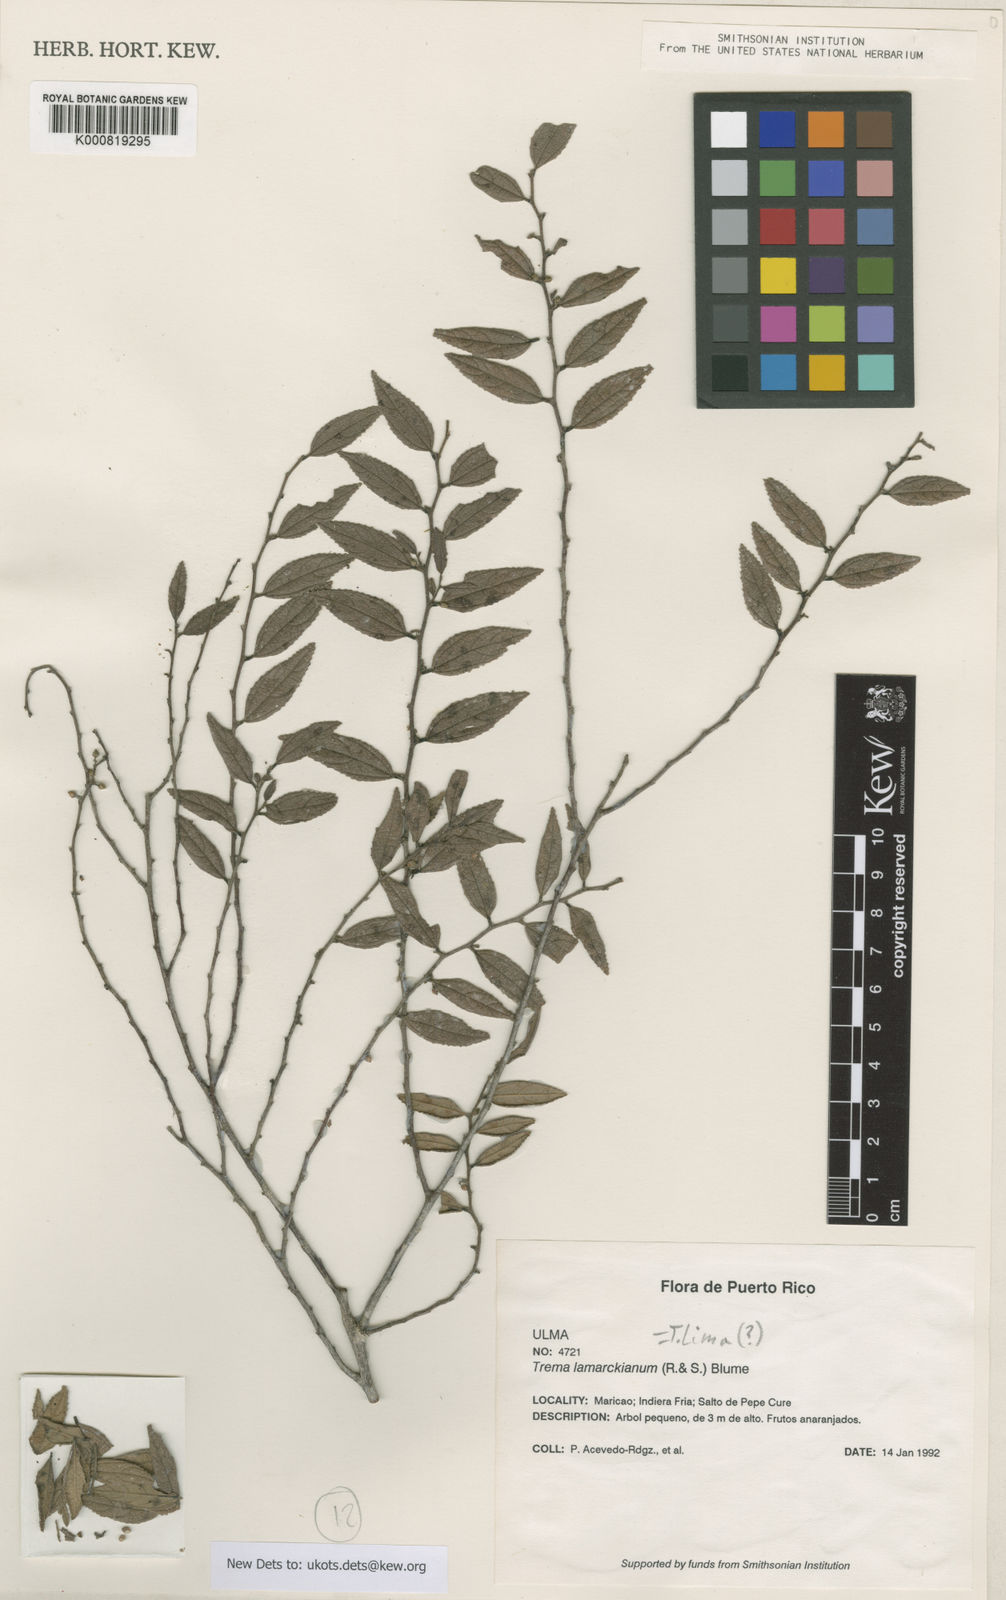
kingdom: Plantae
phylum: Tracheophyta
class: Magnoliopsida
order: Rosales
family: Cannabaceae
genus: Trema
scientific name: Trema lamarckianum
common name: Lamarck's trema
